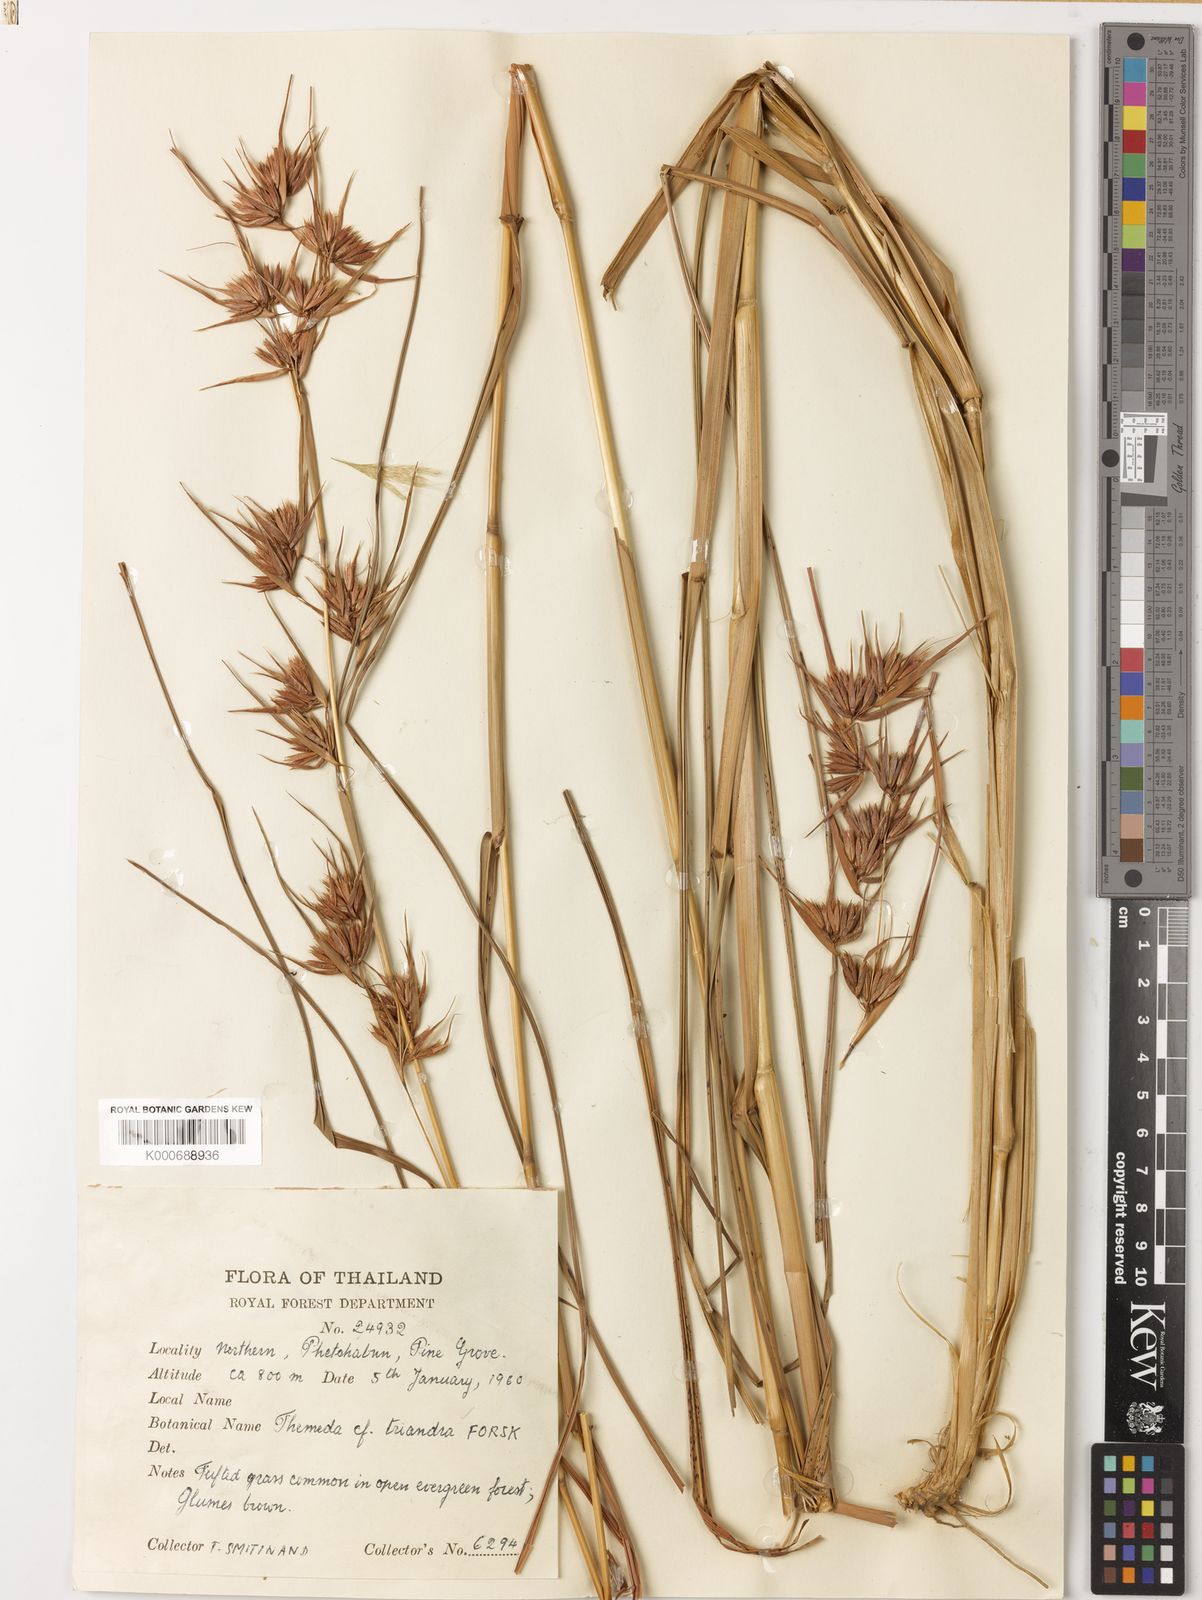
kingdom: Plantae
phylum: Tracheophyta
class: Liliopsida
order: Poales
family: Poaceae
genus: Themeda
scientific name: Themeda triandra
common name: Kangaroo grass
